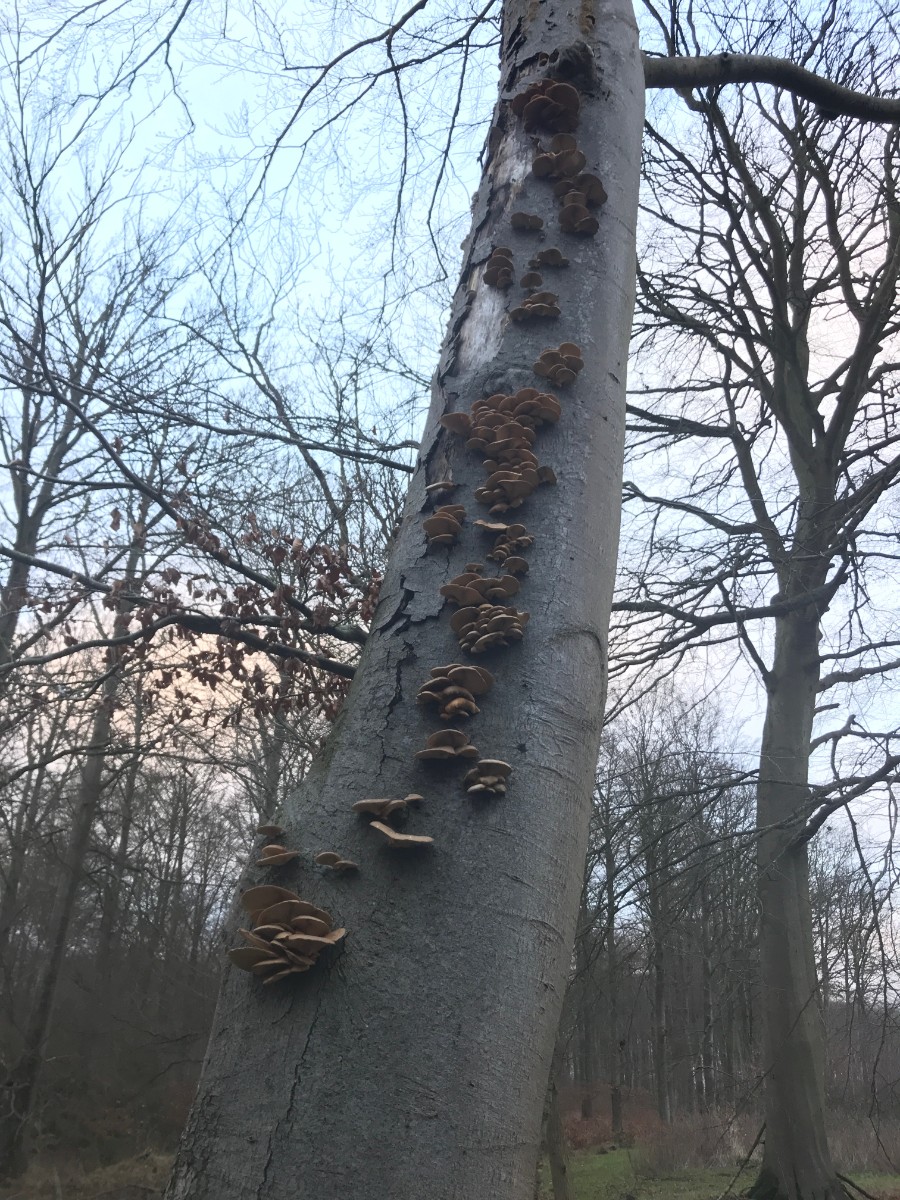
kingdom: Fungi
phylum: Basidiomycota
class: Agaricomycetes
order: Agaricales
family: Pleurotaceae
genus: Pleurotus
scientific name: Pleurotus ostreatus
